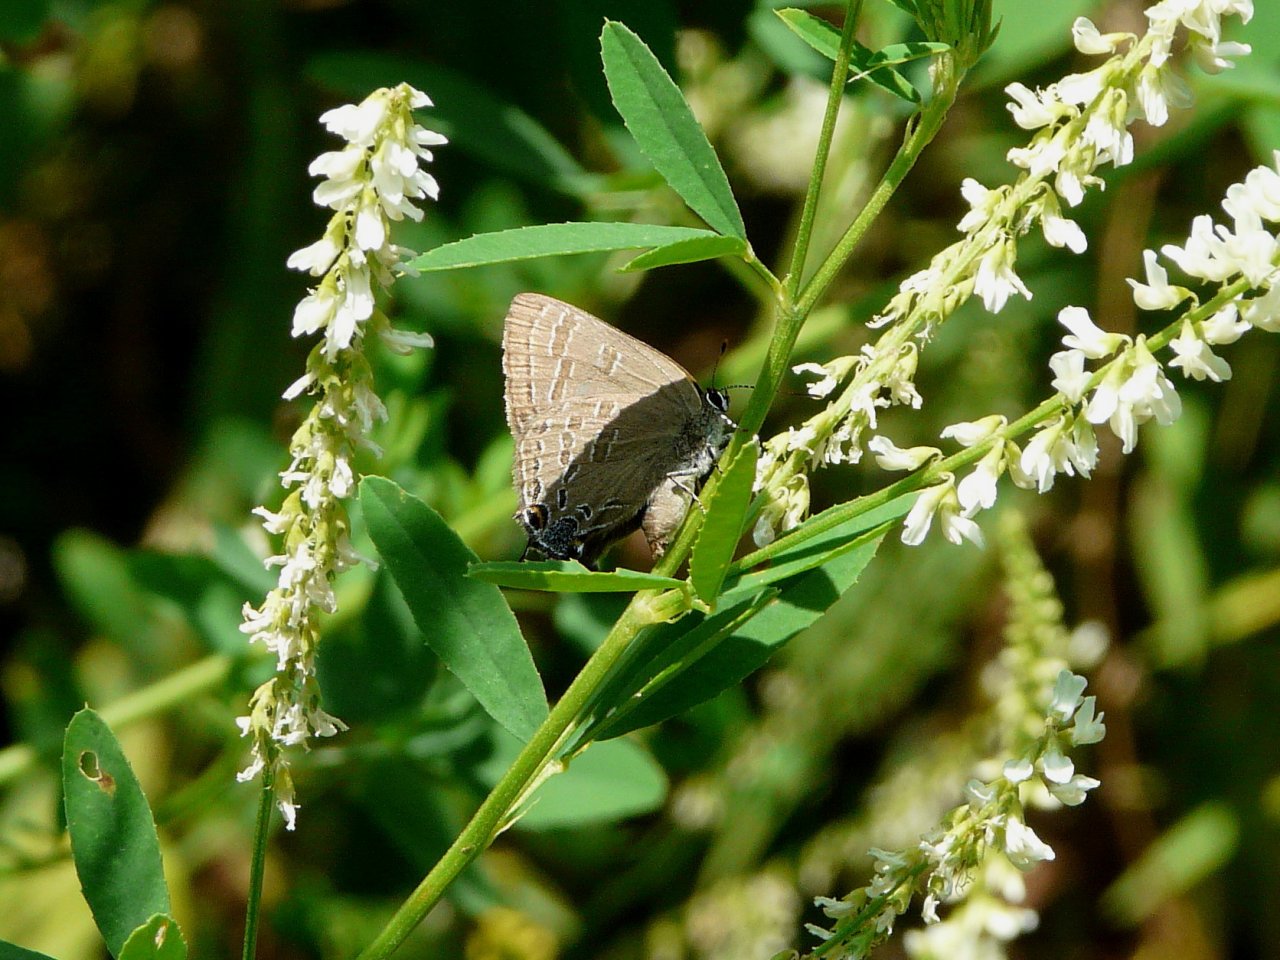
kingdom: Animalia
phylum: Arthropoda
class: Insecta
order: Lepidoptera
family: Lycaenidae
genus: Strymon
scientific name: Strymon caryaevorus
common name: Hickory Hairstreak
